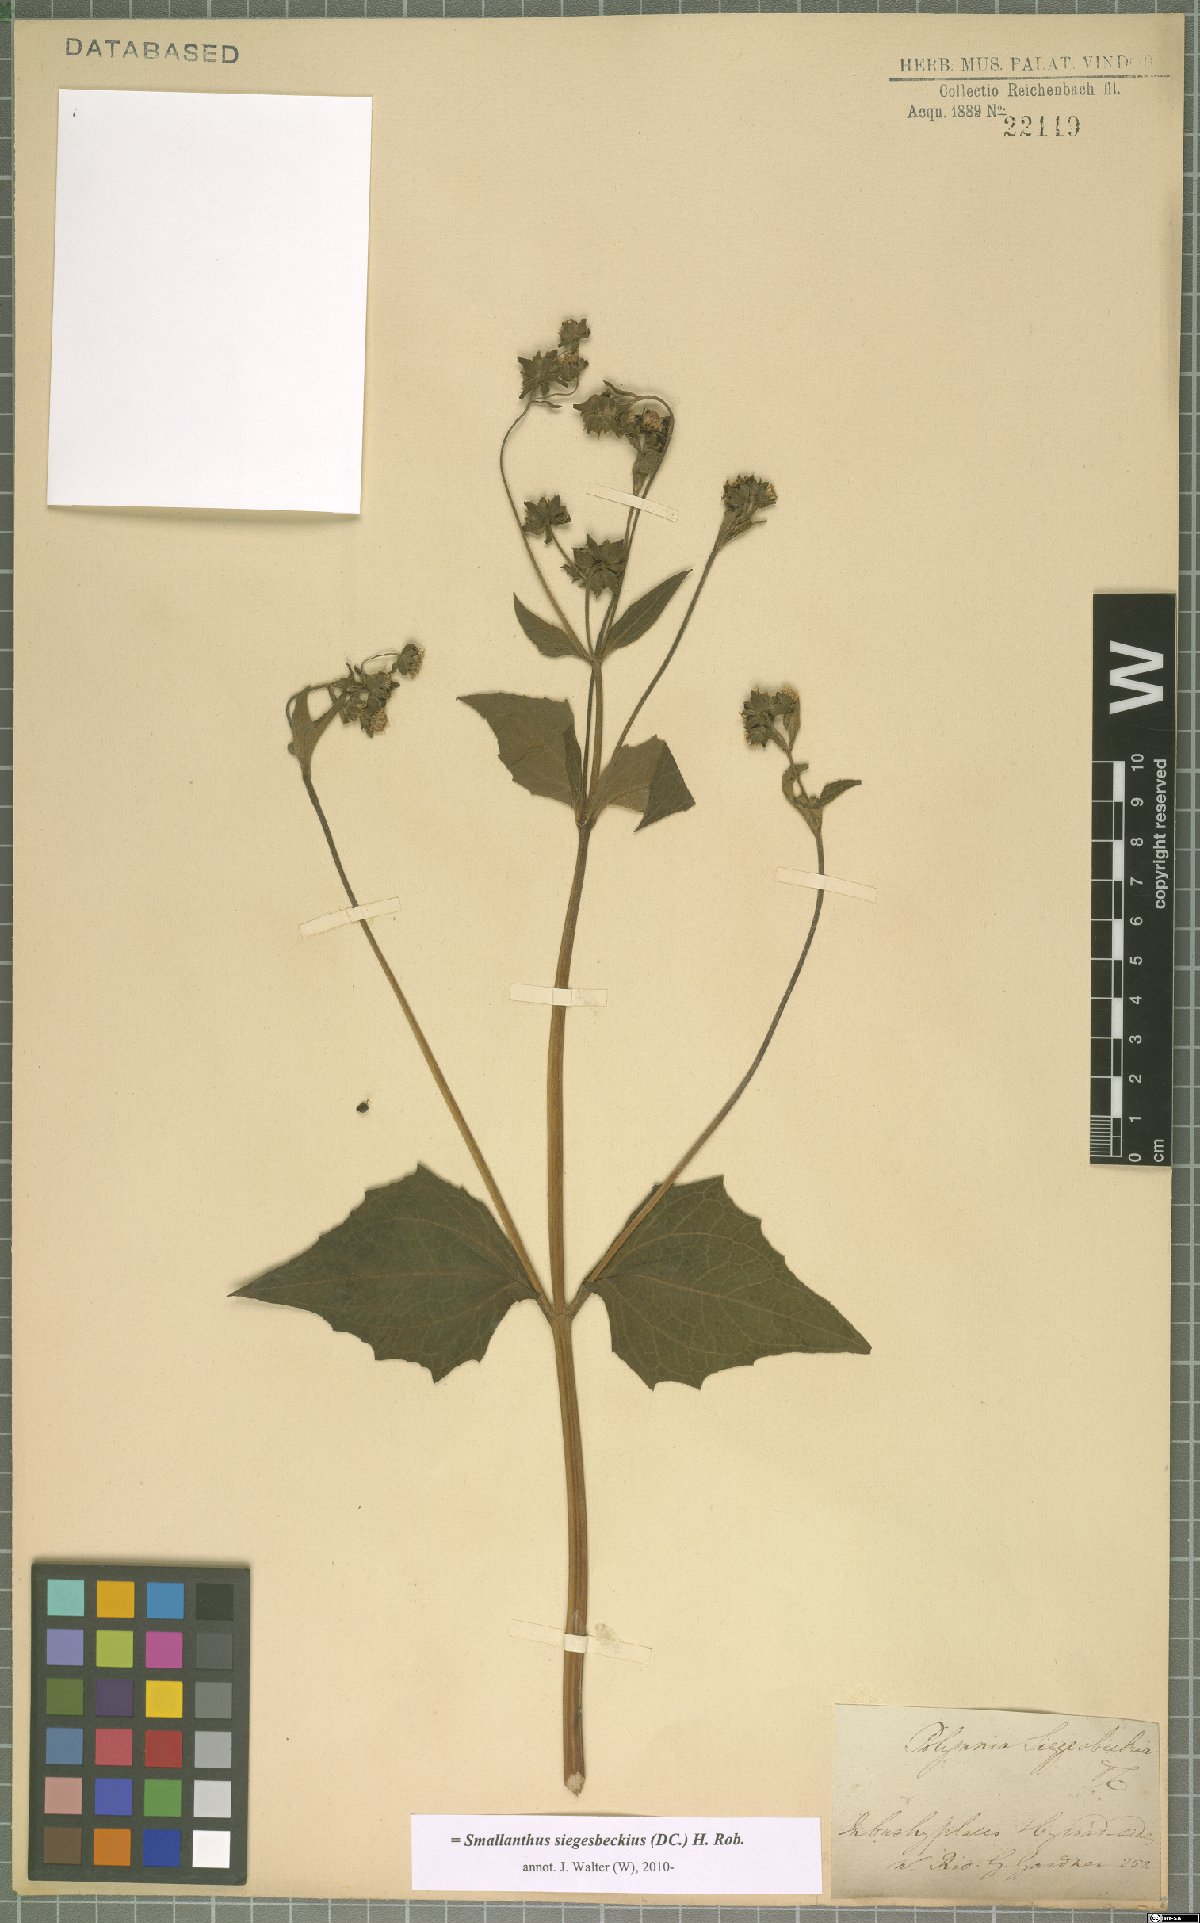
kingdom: Plantae
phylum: Tracheophyta
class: Magnoliopsida
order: Asterales
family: Asteraceae
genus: Smallanthus
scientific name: Smallanthus siegesbeckius
